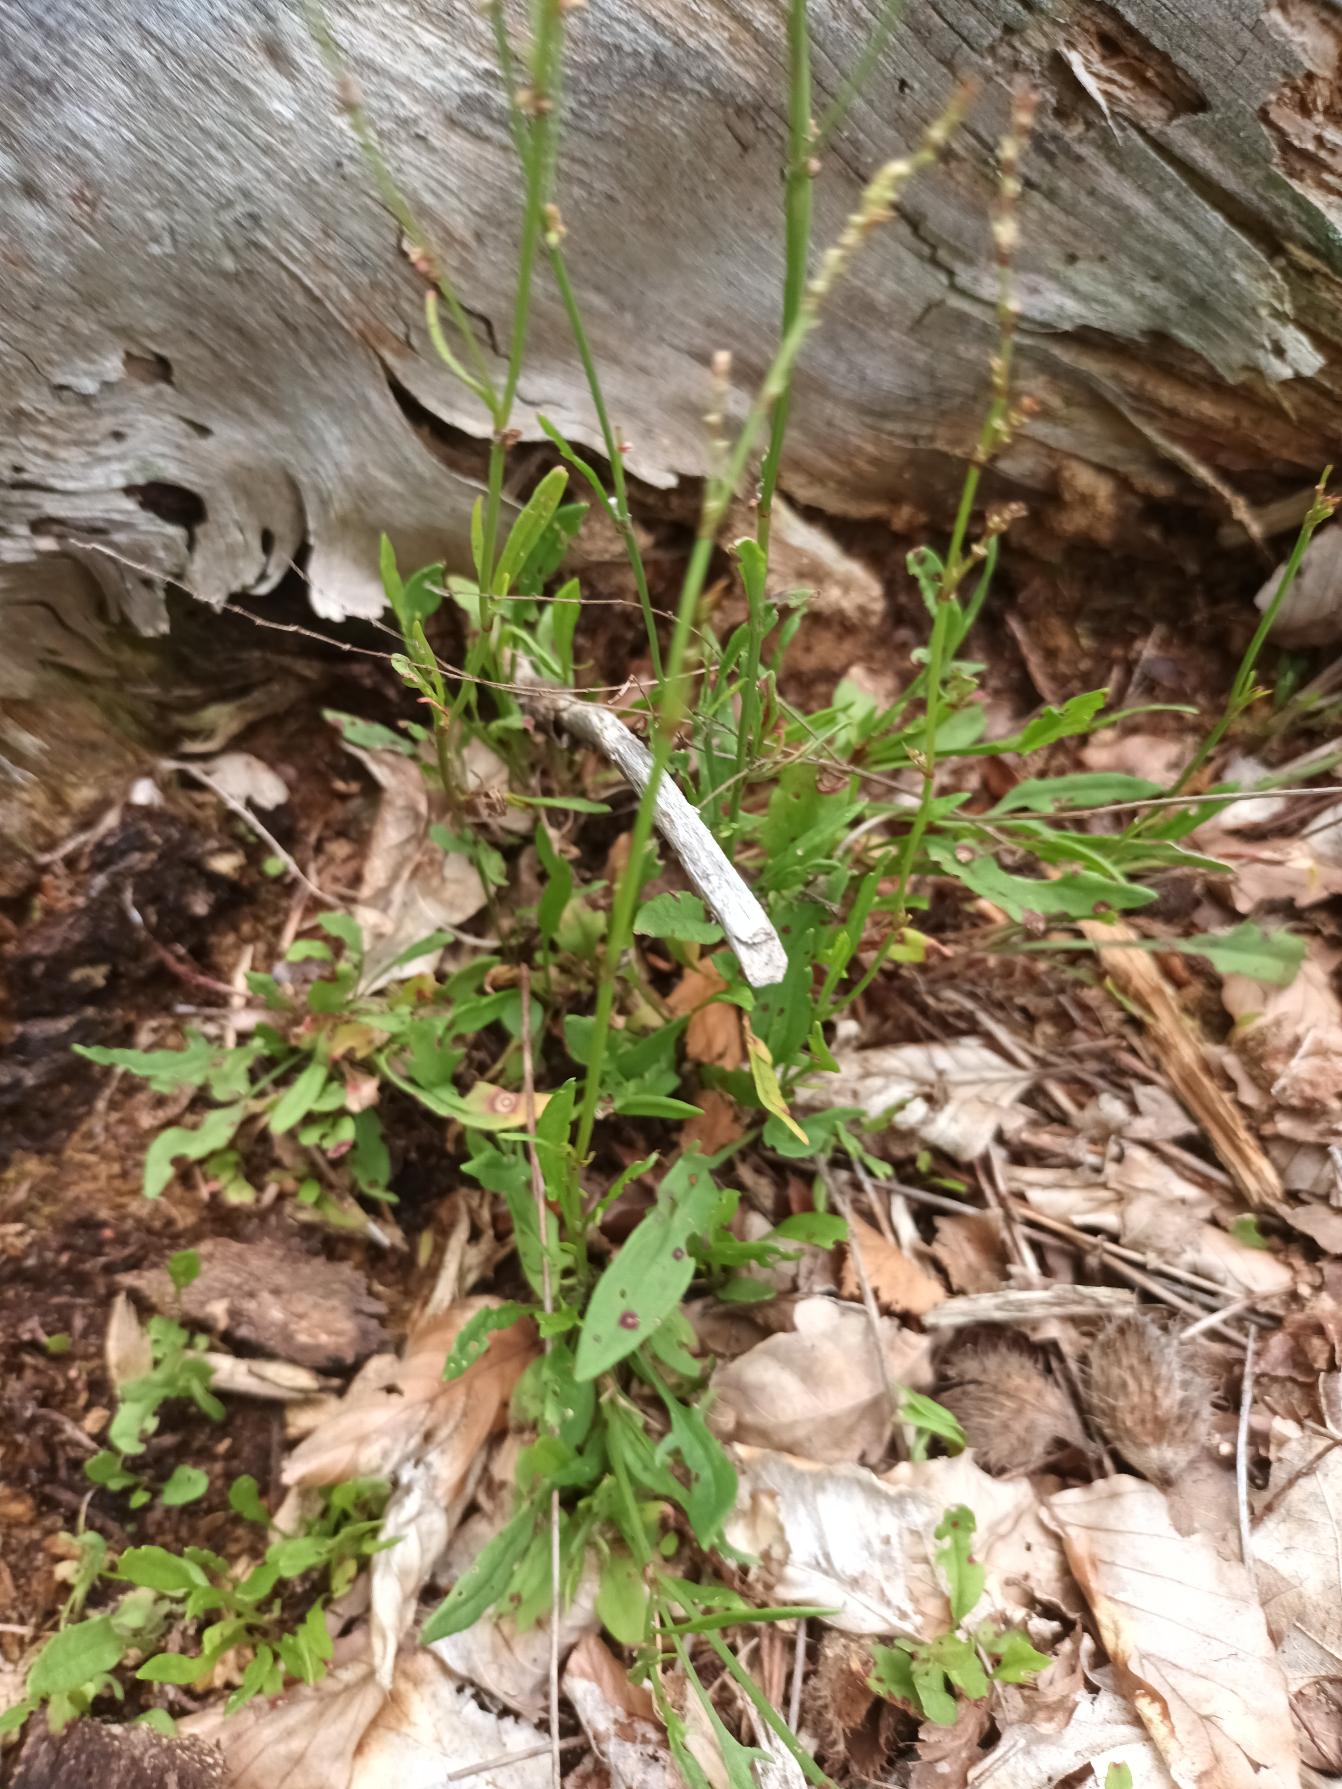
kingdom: Plantae
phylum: Tracheophyta
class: Magnoliopsida
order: Caryophyllales
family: Polygonaceae
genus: Rumex
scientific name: Rumex acetosella
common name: Rødknæ
